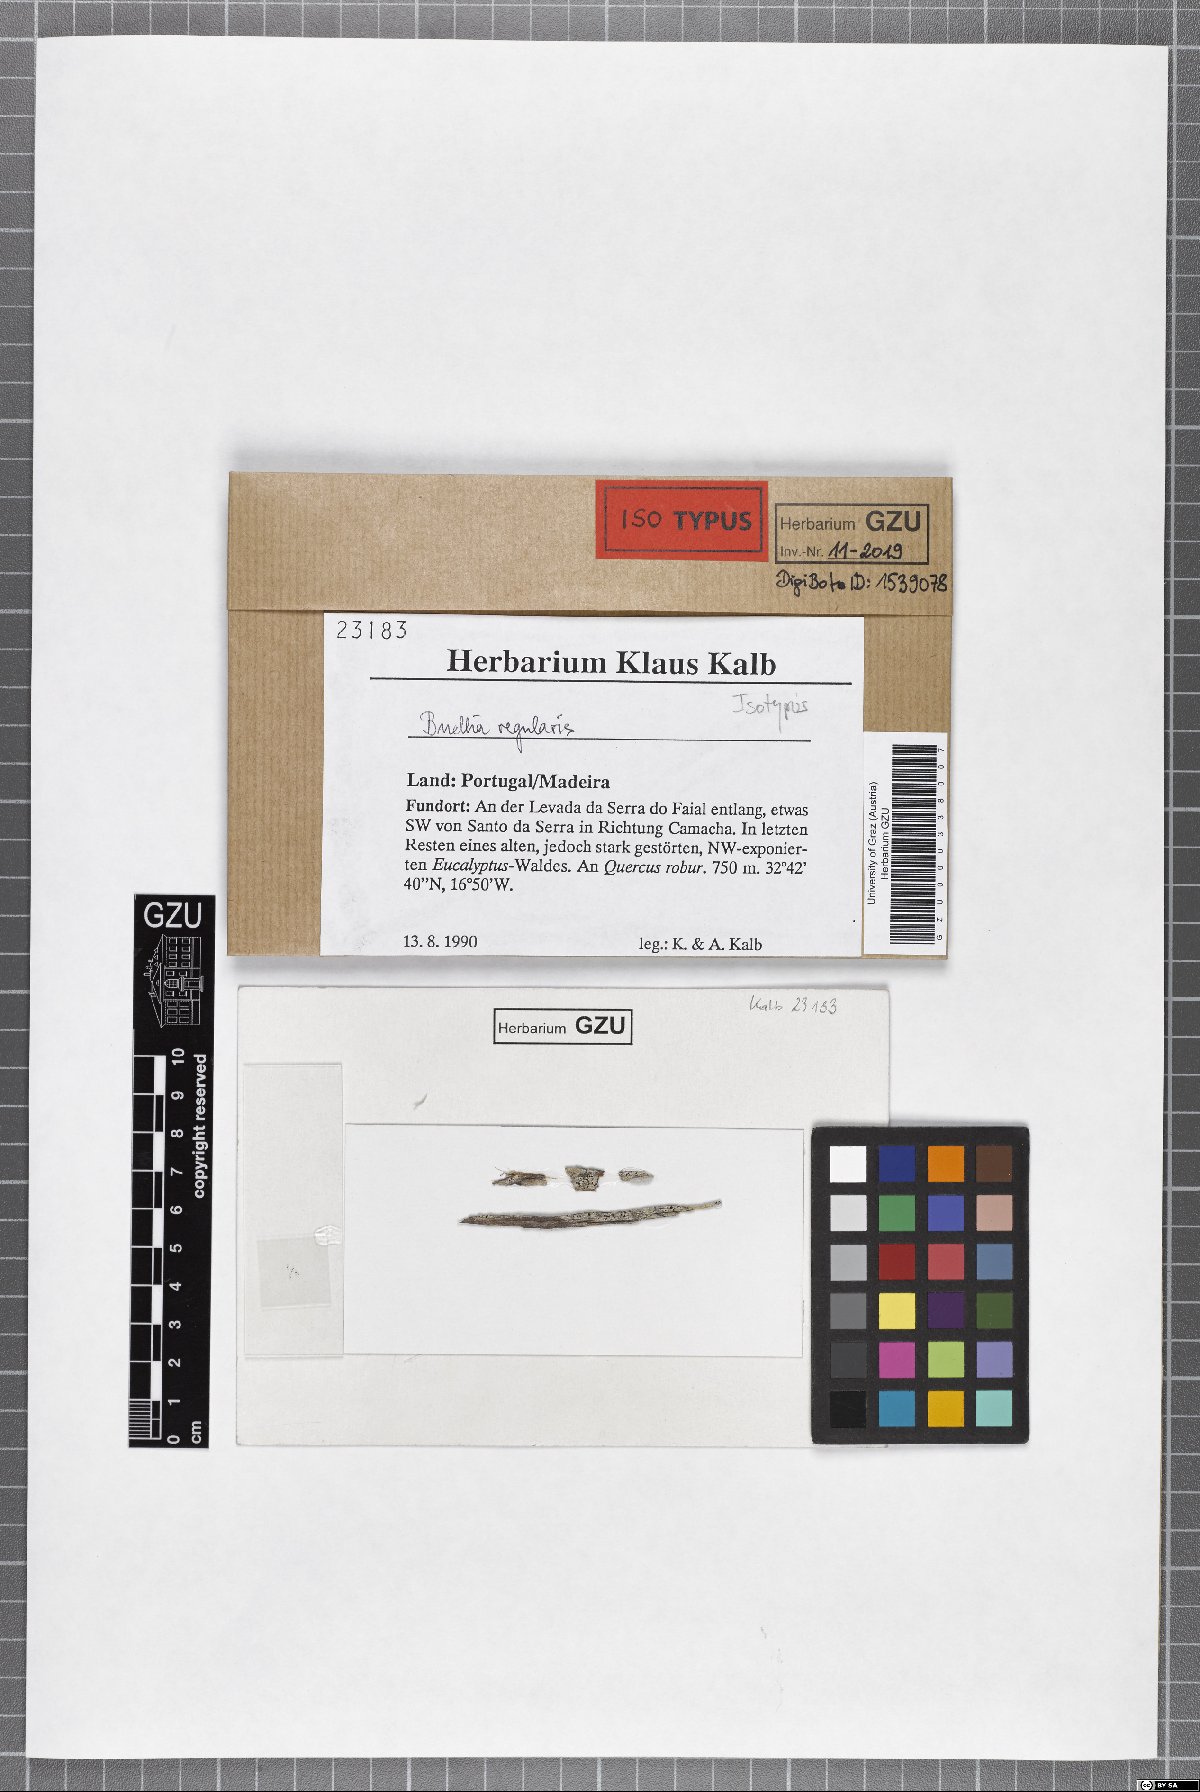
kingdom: Fungi
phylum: Ascomycota
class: Lecanoromycetes
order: Caliciales
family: Caliciaceae
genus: Buellia
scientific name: Buellia regularis
